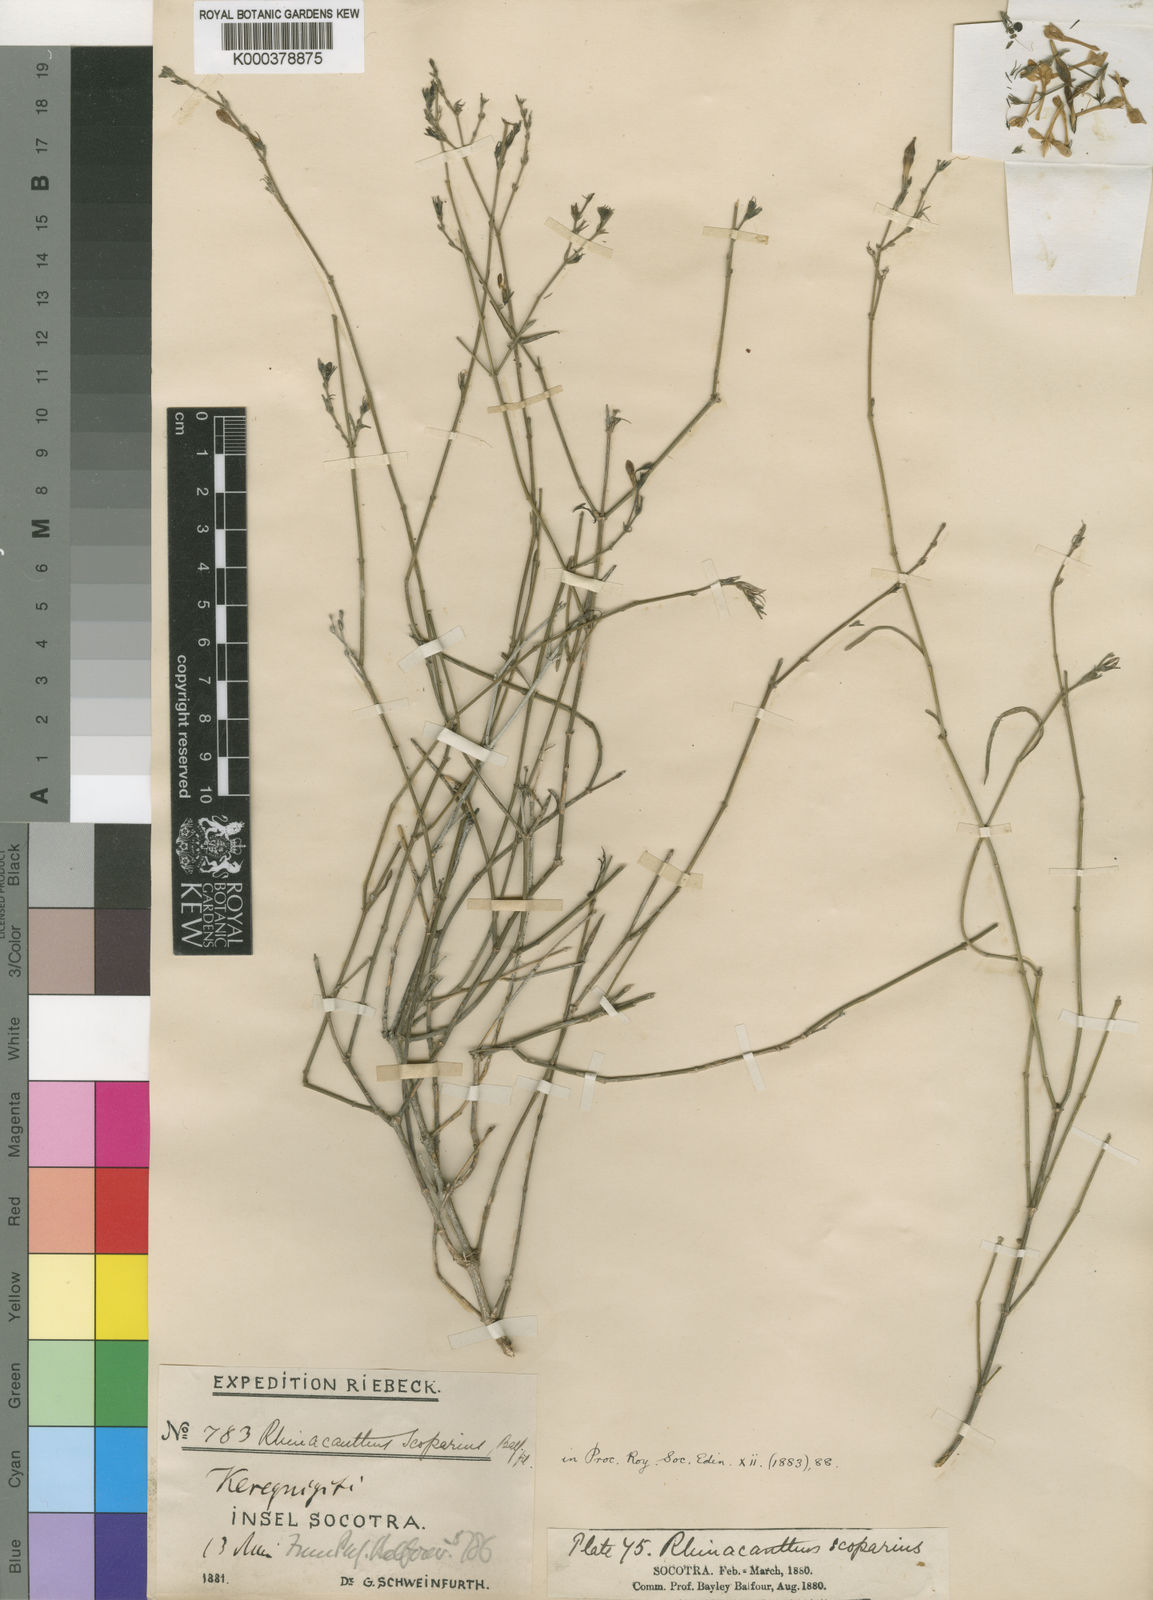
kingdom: Plantae
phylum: Tracheophyta
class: Magnoliopsida
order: Lamiales
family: Acanthaceae
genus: Rhinacanthus
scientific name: Rhinacanthus scoparius
